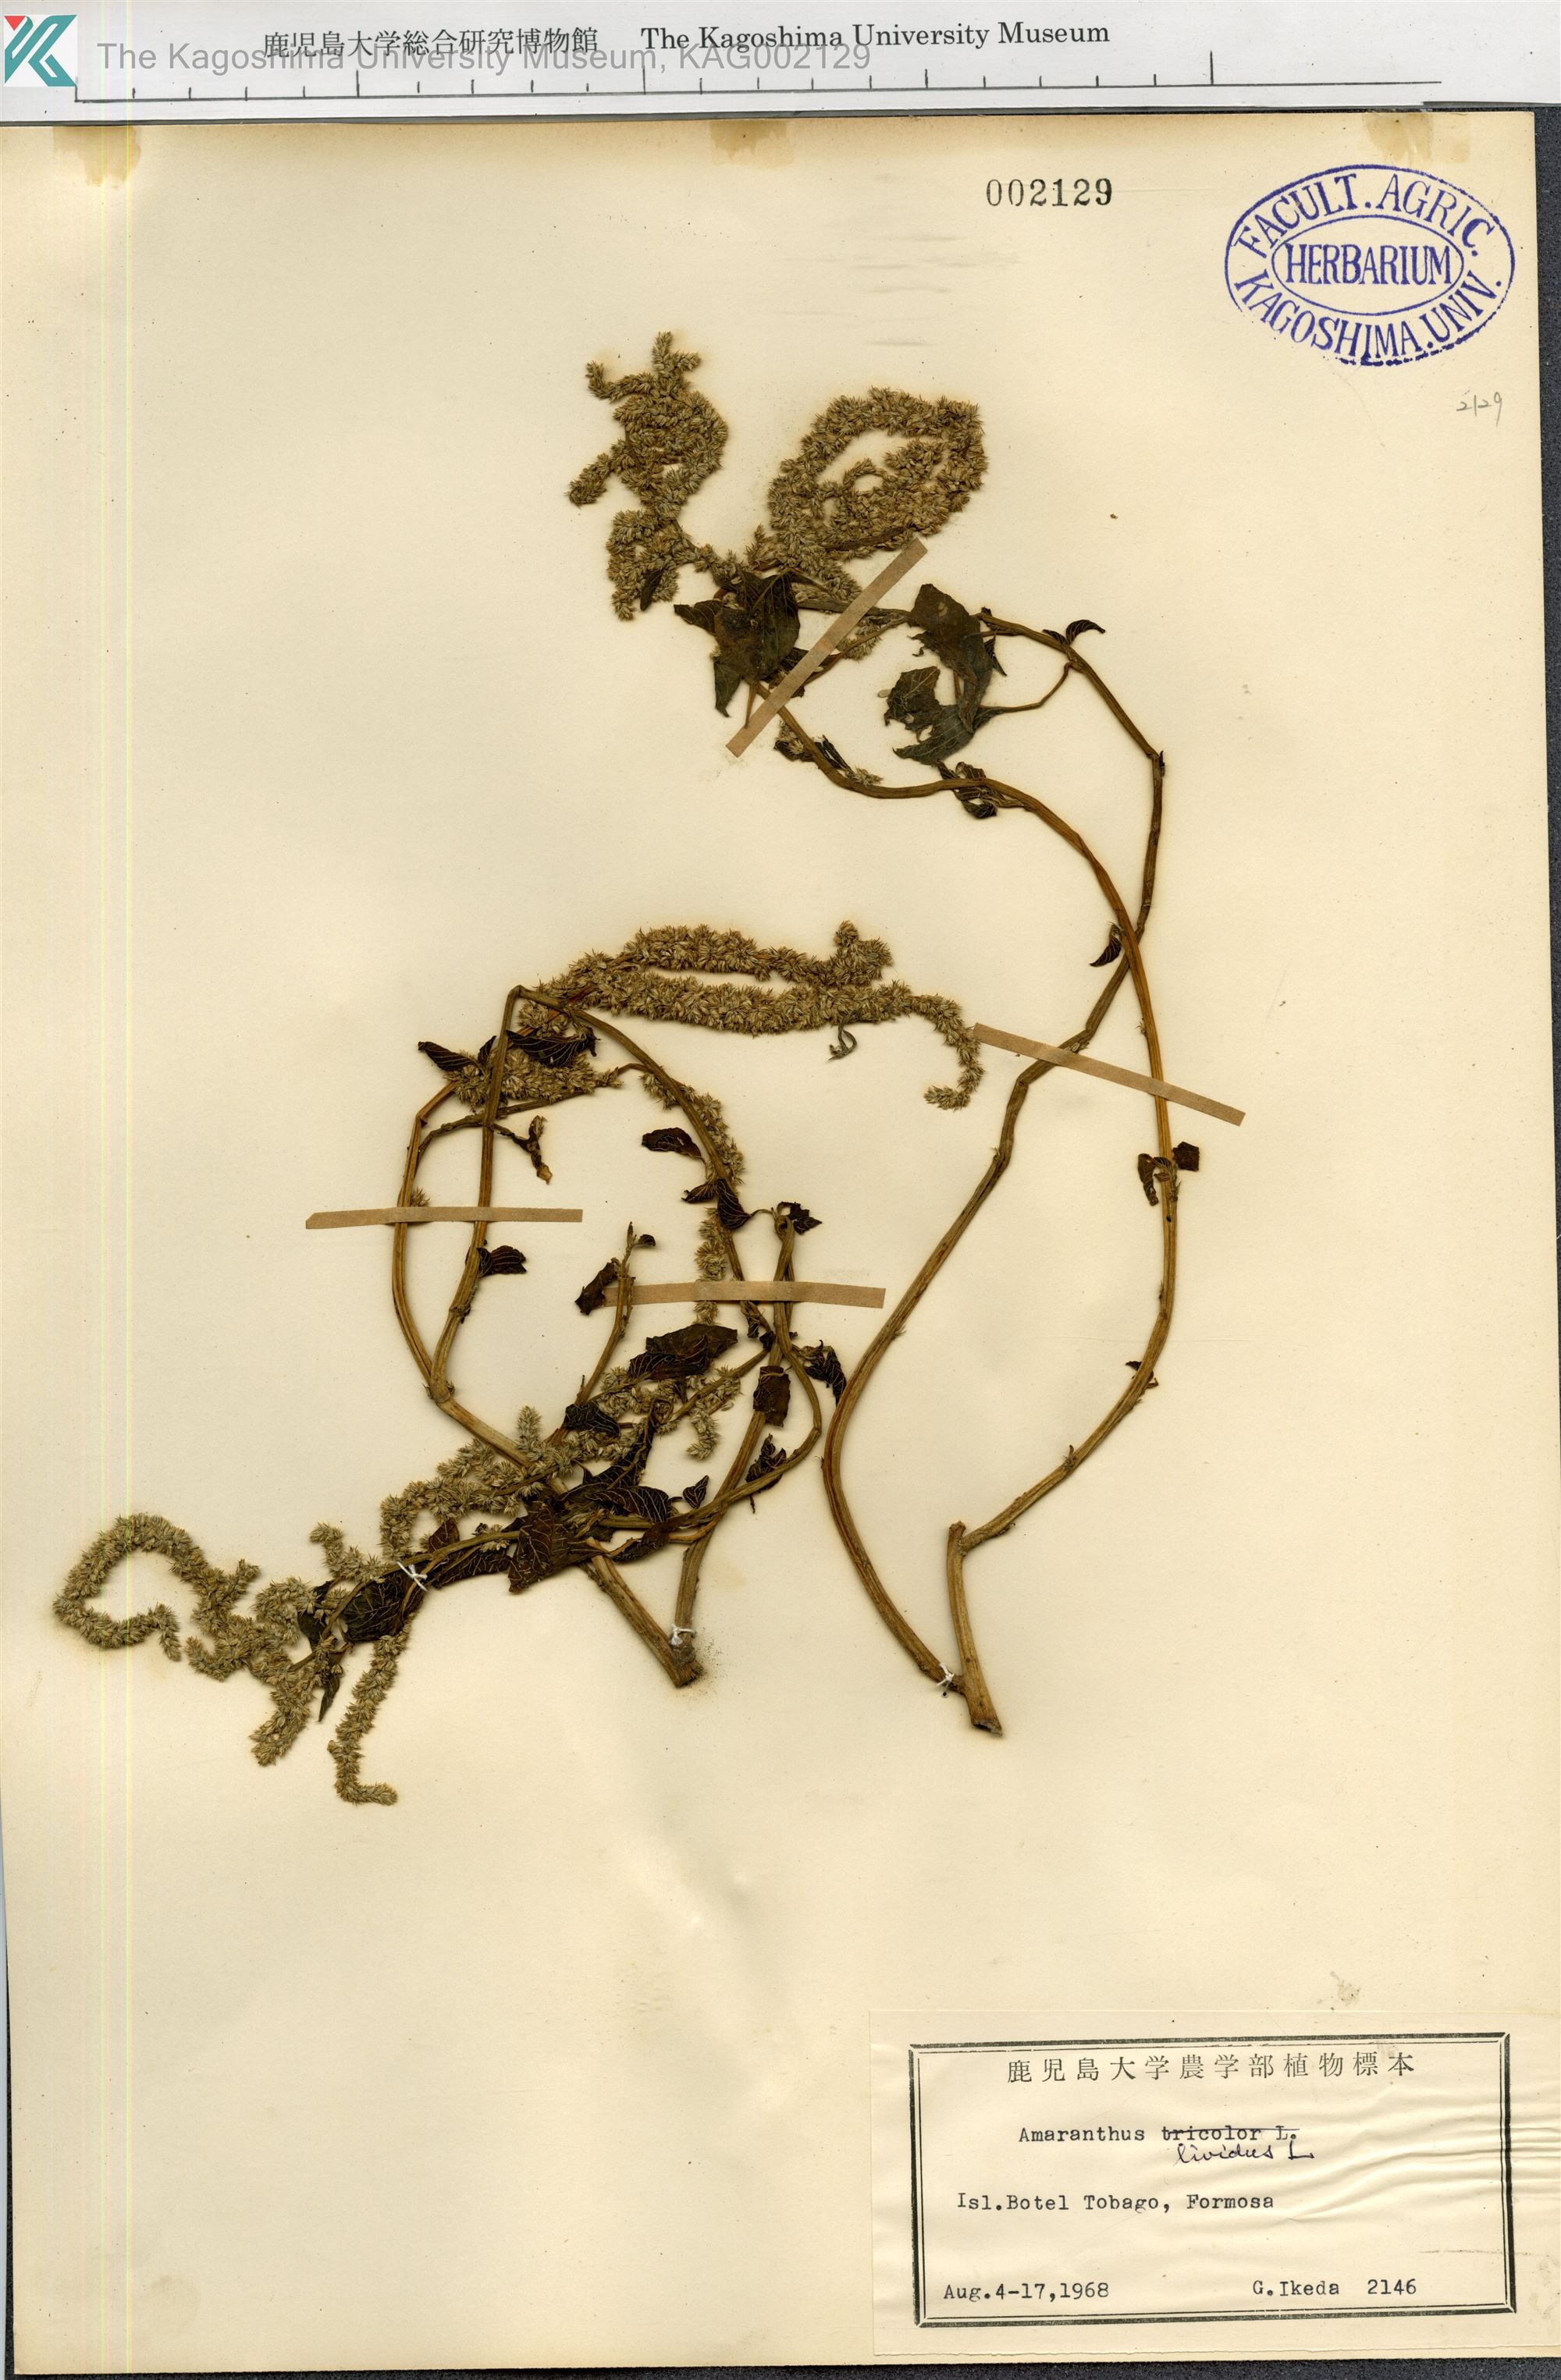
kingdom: Plantae
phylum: Tracheophyta
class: Magnoliopsida
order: Caryophyllales
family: Amaranthaceae
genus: Amaranthus
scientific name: Amaranthus blitum
